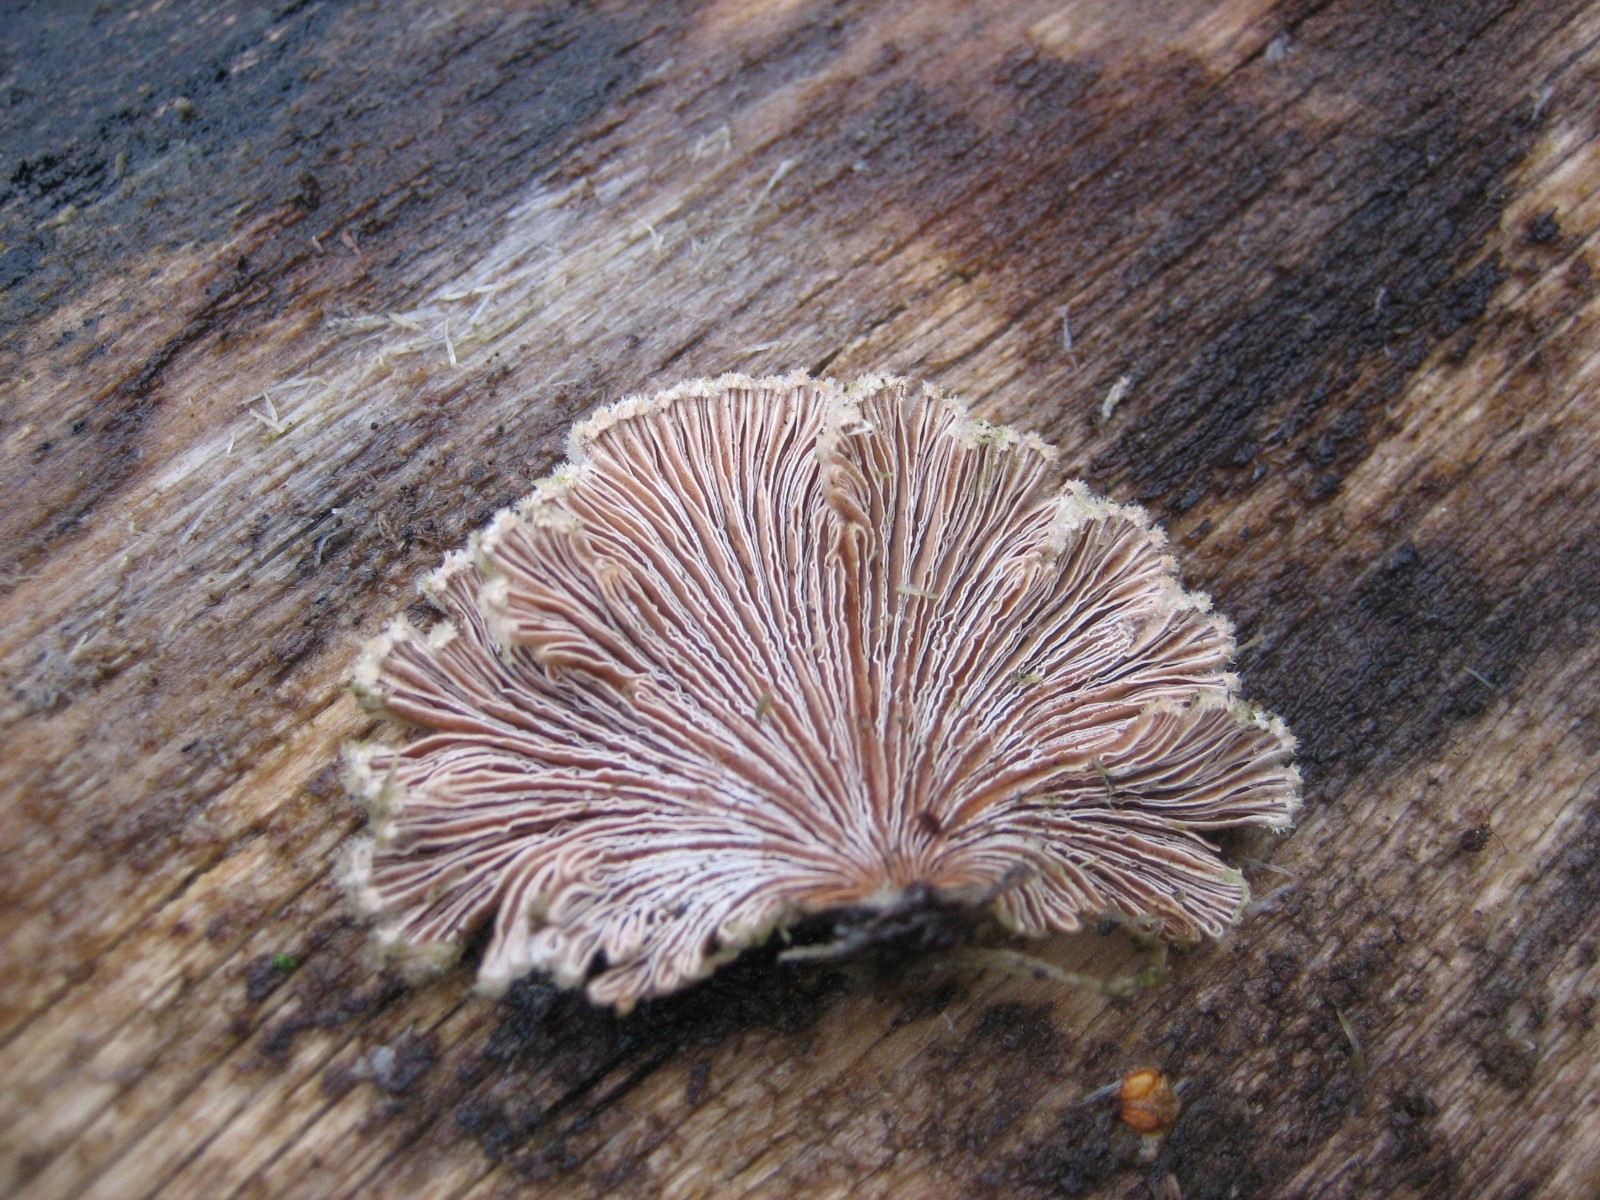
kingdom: Fungi
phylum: Basidiomycota
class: Agaricomycetes
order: Agaricales
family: Schizophyllaceae
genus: Schizophyllum
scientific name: Schizophyllum commune
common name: kløvblad
